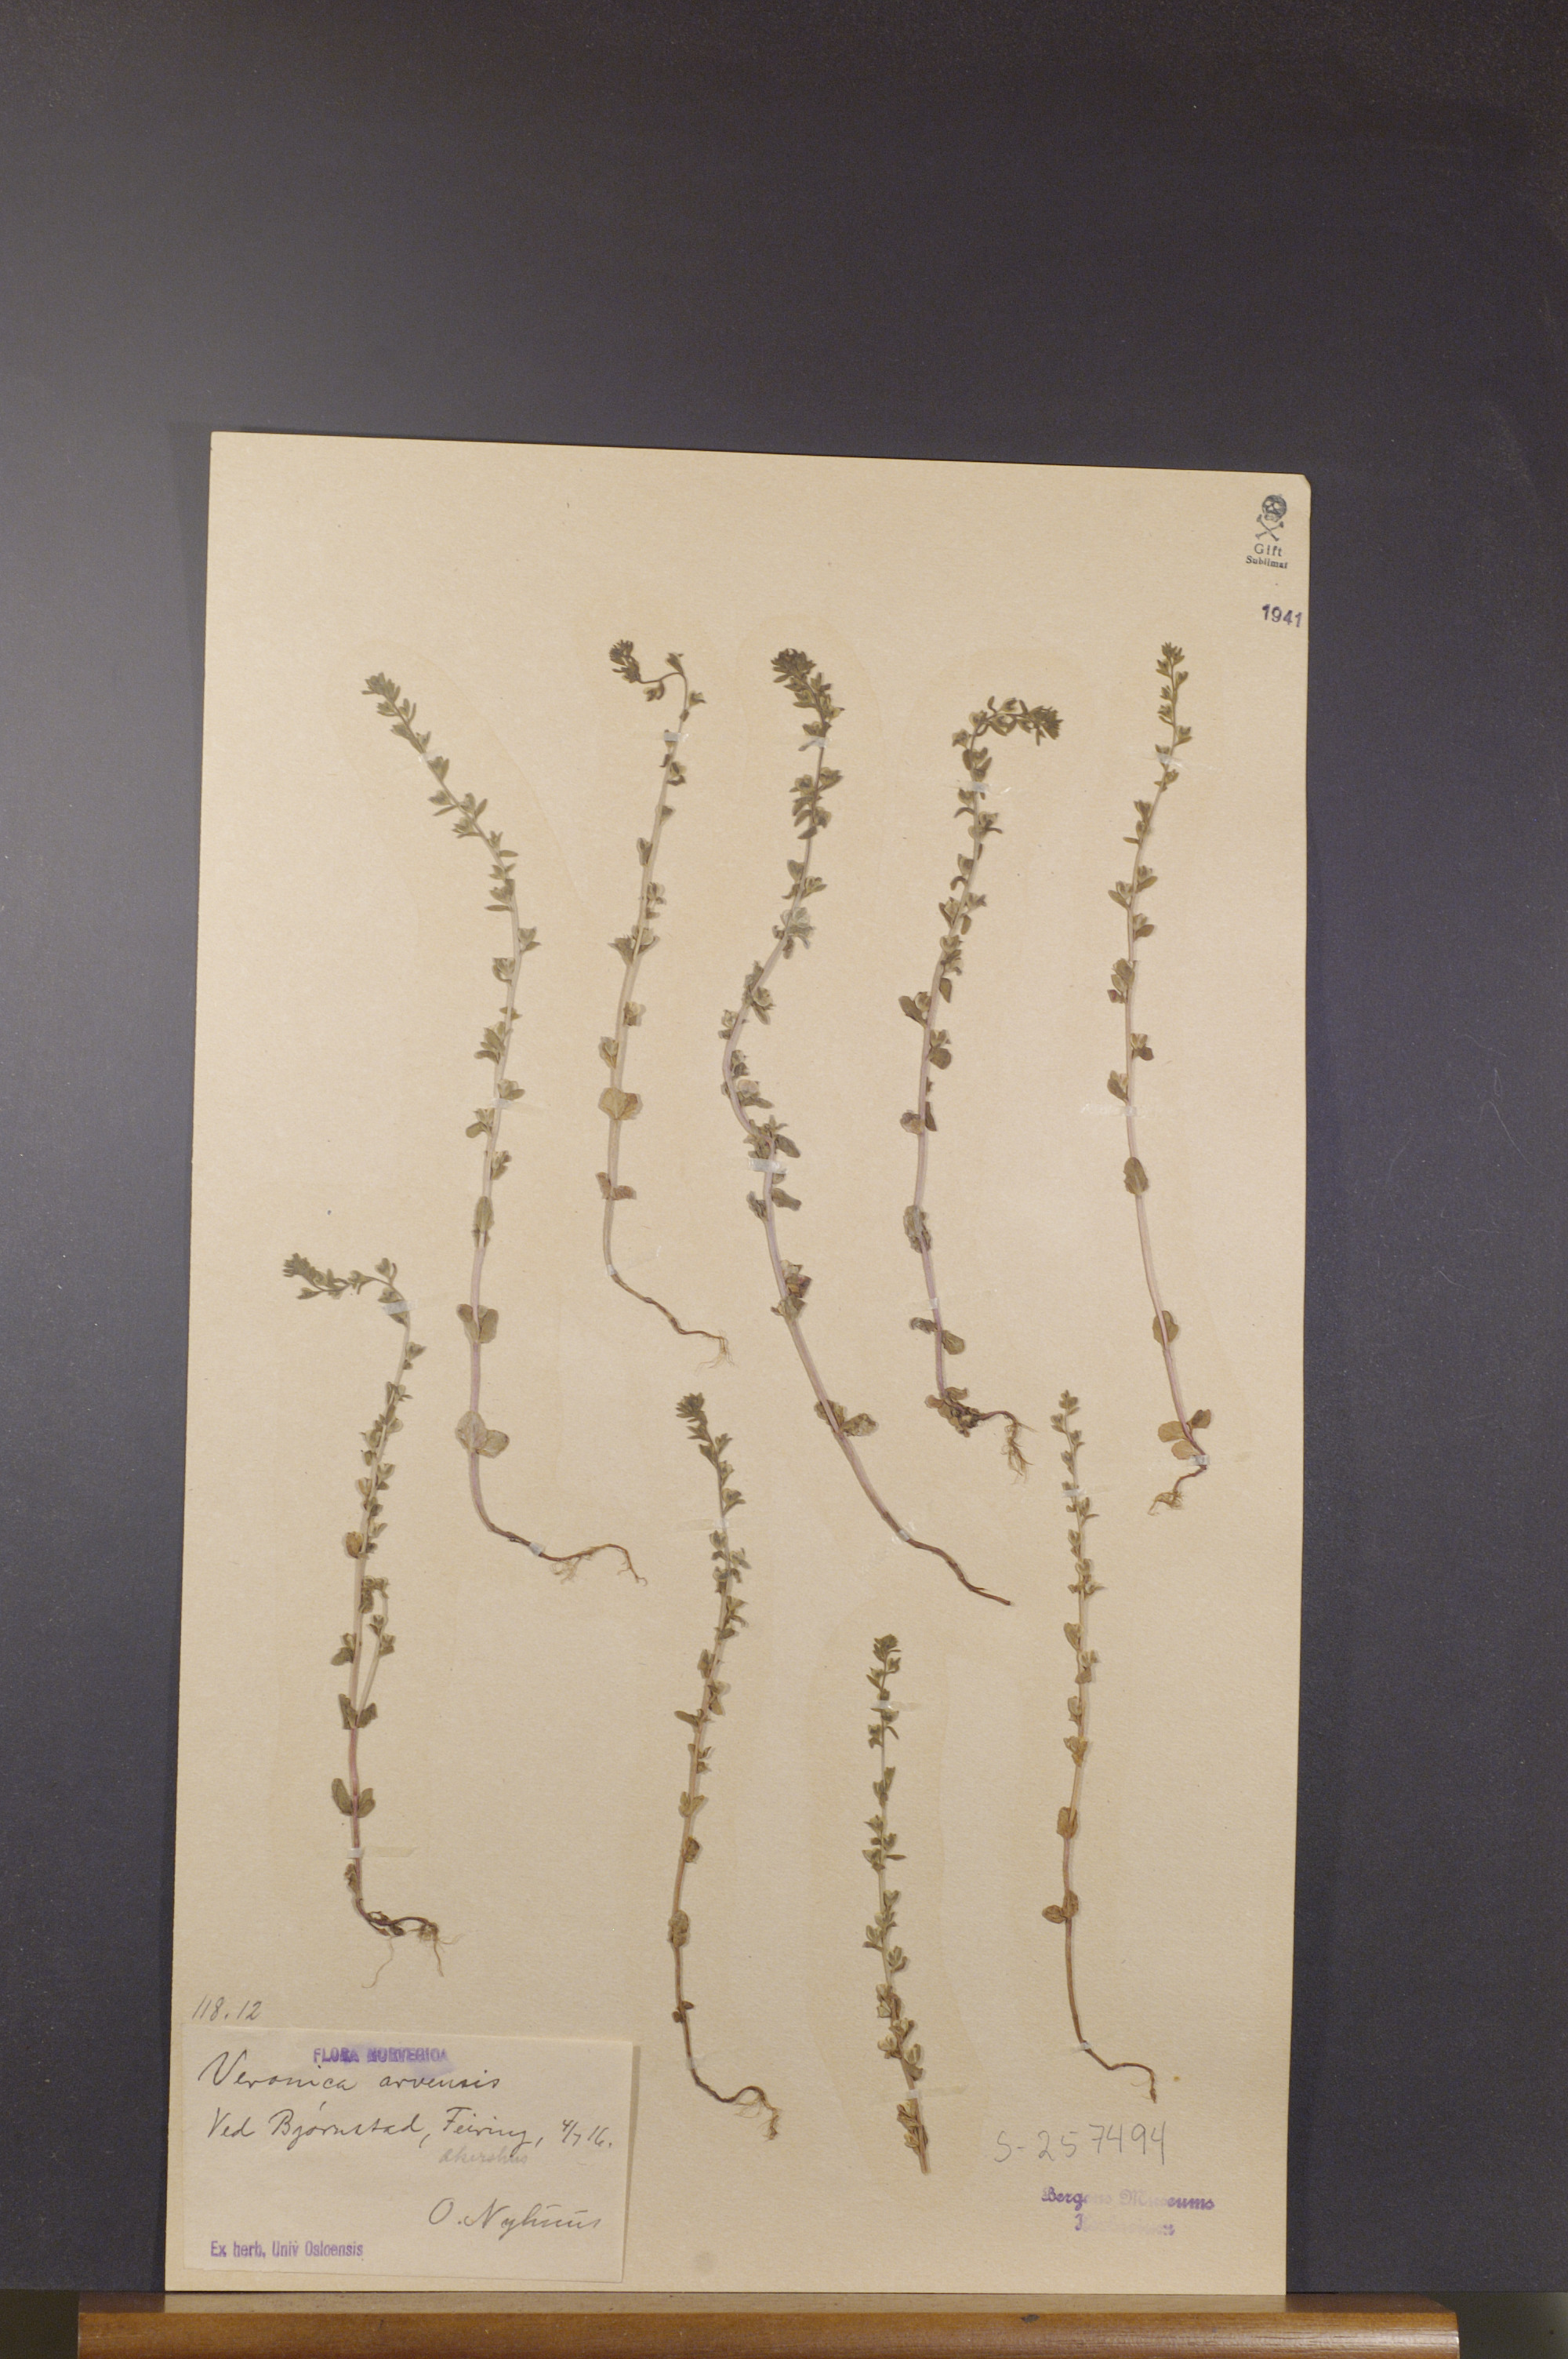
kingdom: Plantae
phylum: Tracheophyta
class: Magnoliopsida
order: Lamiales
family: Plantaginaceae
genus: Veronica
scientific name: Veronica arvensis
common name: Corn speedwell
